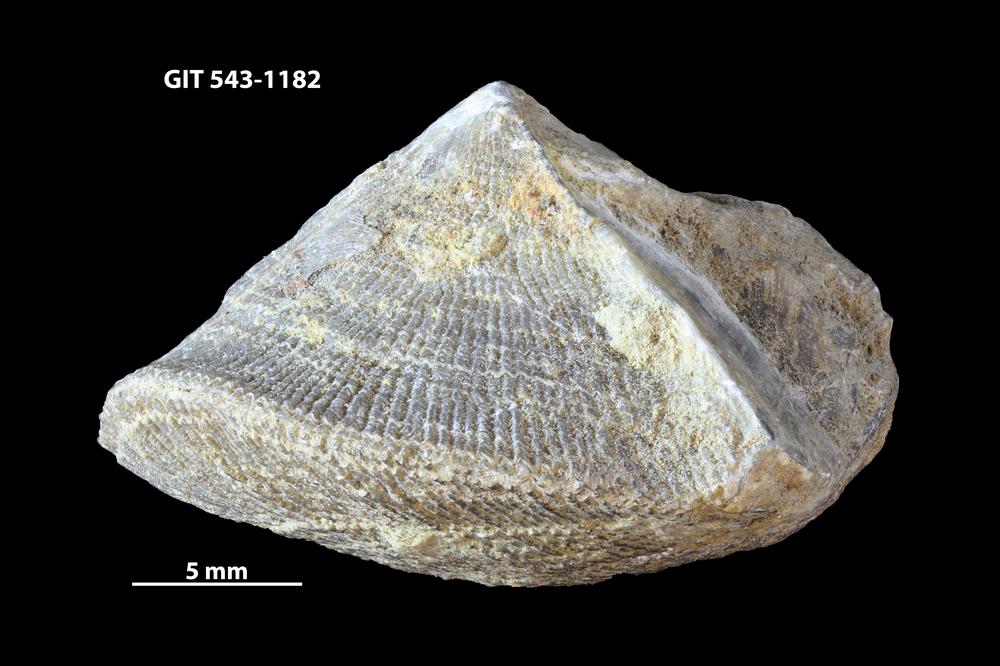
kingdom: Animalia
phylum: Brachiopoda
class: Rhynchonellata
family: Clitambonitidae
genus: Ilmarinia
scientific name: Ilmarinia dimorpha
